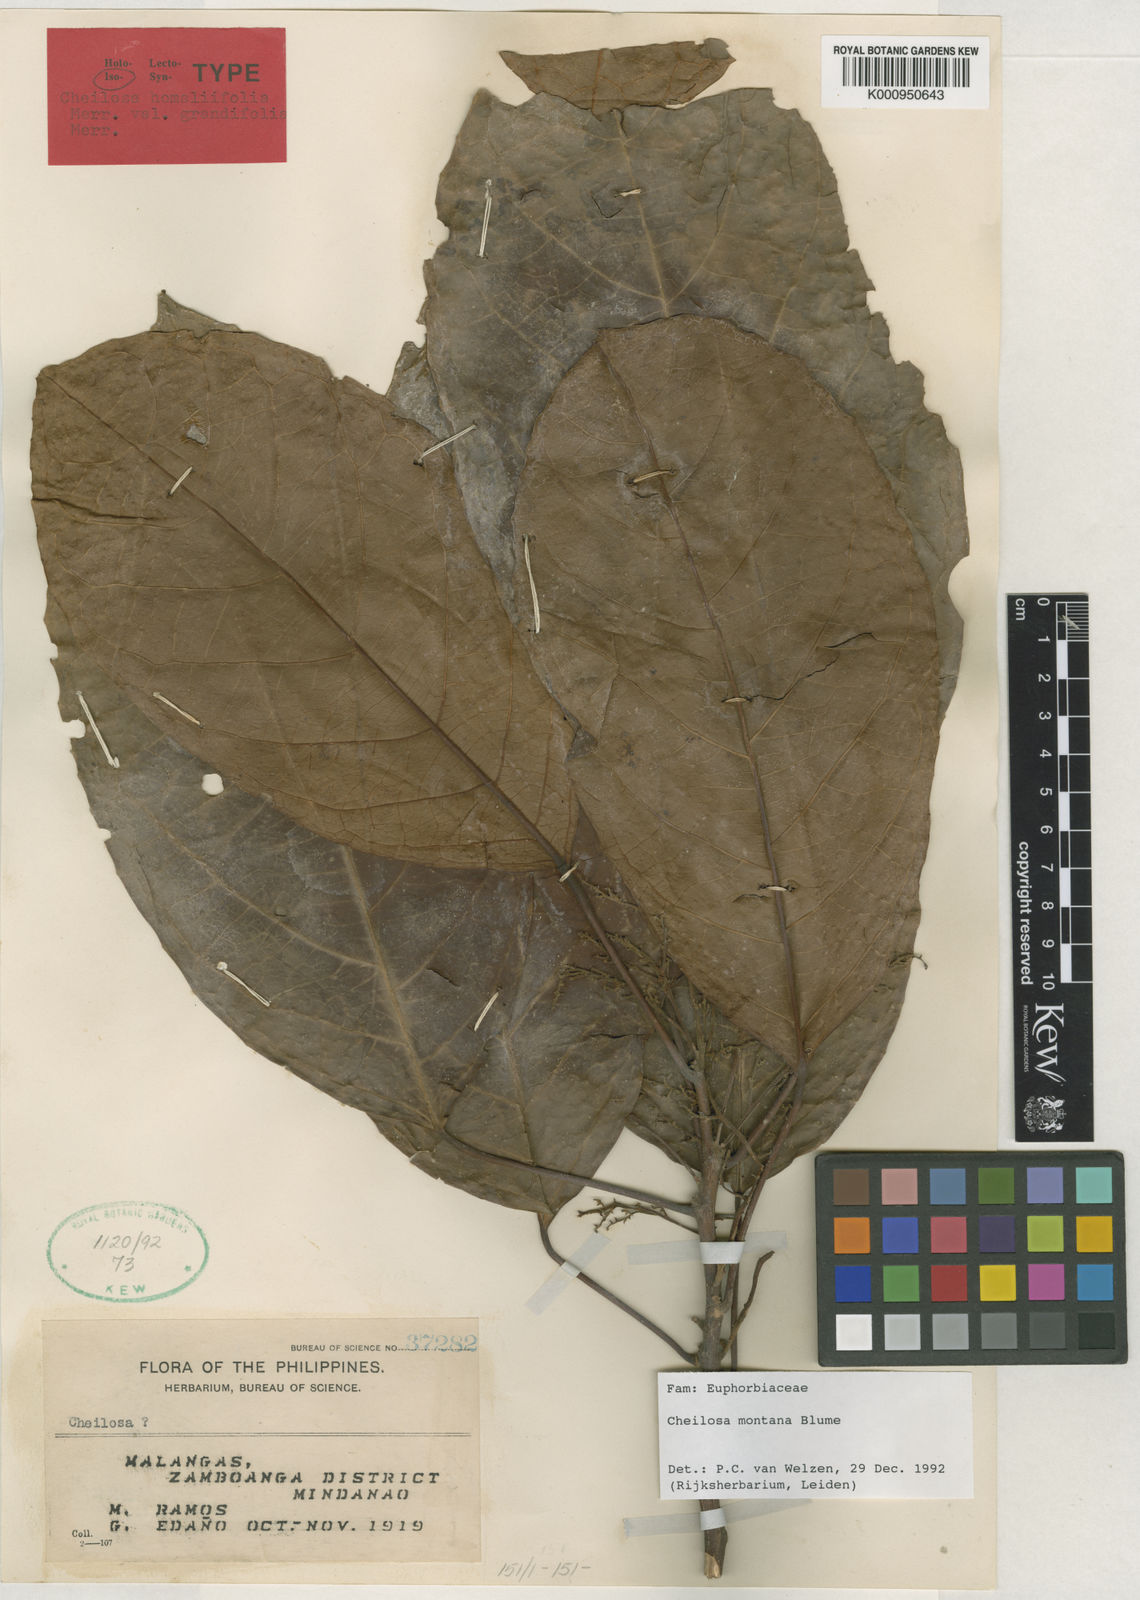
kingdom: Plantae
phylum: Tracheophyta
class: Magnoliopsida
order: Malpighiales
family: Euphorbiaceae
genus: Cheilosa
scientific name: Cheilosa montana
